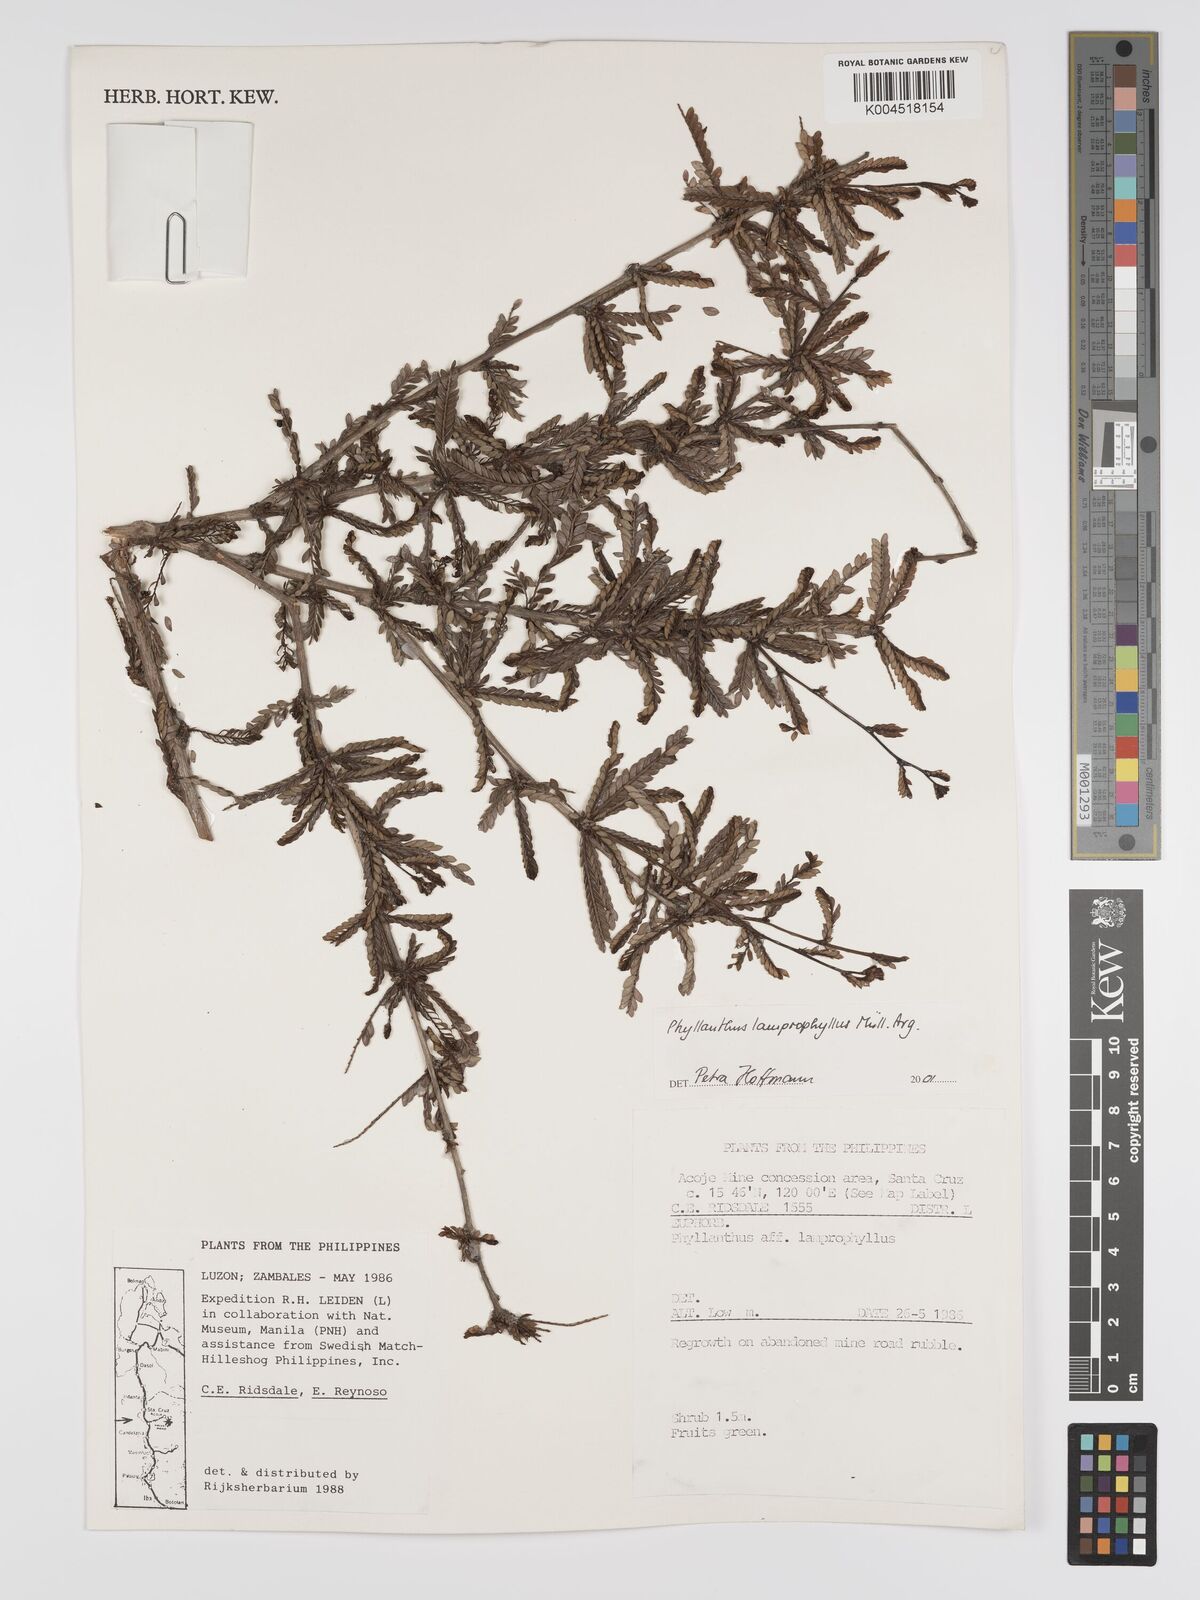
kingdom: Plantae
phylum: Tracheophyta
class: Magnoliopsida
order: Malpighiales
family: Phyllanthaceae
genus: Glochidion
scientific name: Glochidion lamprophyllum
